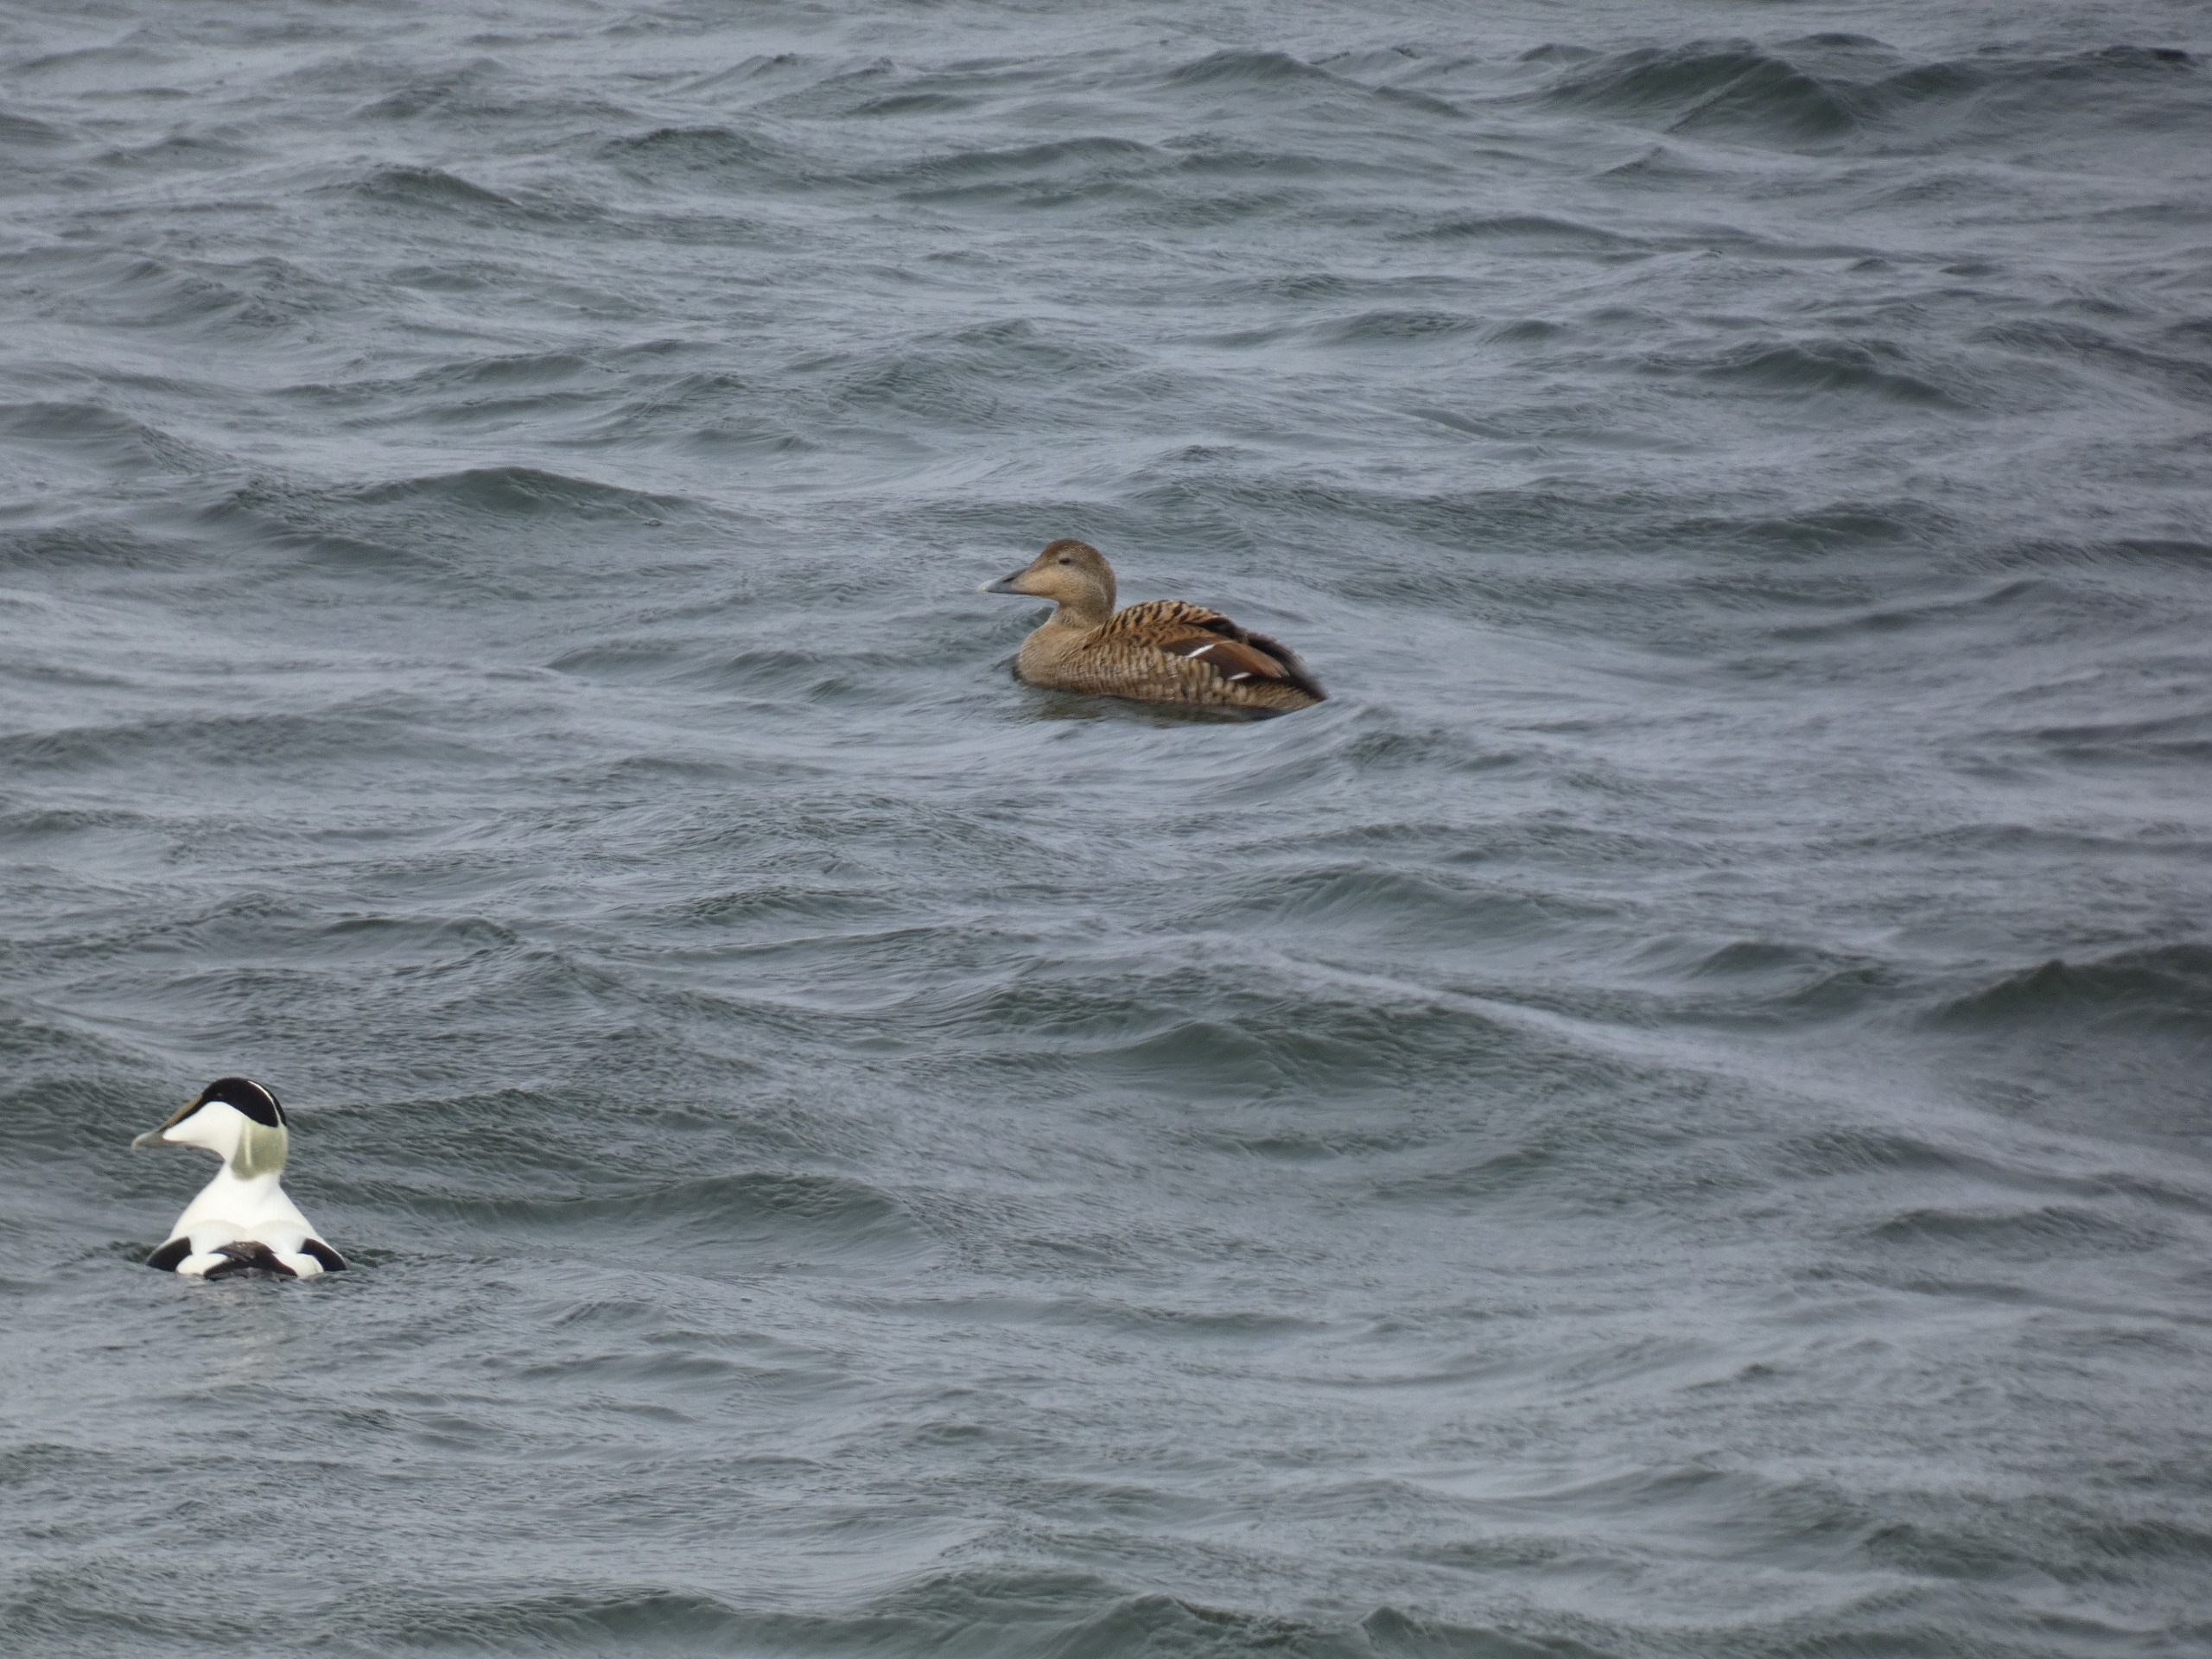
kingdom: Animalia
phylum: Chordata
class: Aves
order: Anseriformes
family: Anatidae
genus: Somateria
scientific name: Somateria mollissima
